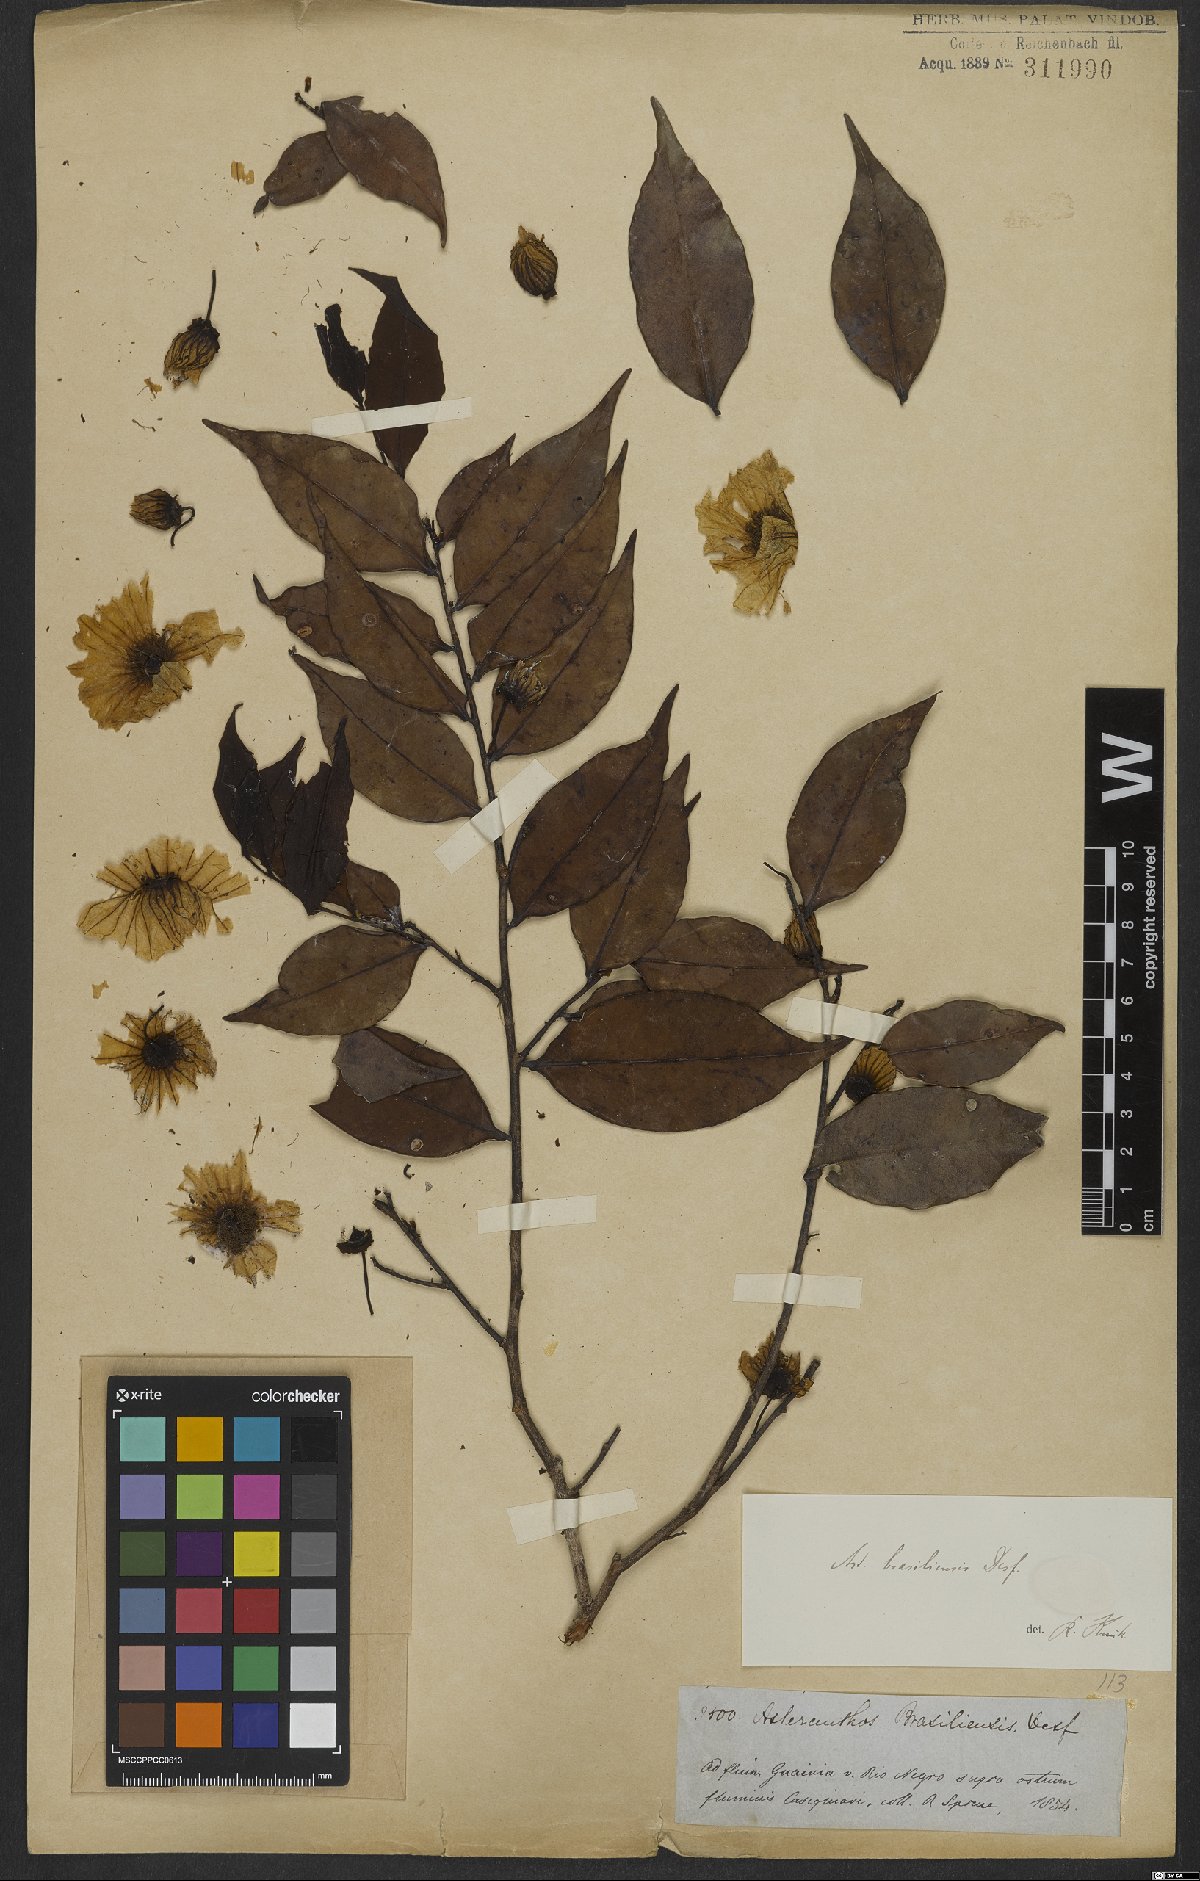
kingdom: Plantae
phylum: Tracheophyta
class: Magnoliopsida
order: Ericales
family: Lecythidaceae
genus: Asteranthos
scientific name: Asteranthos brasiliensis
